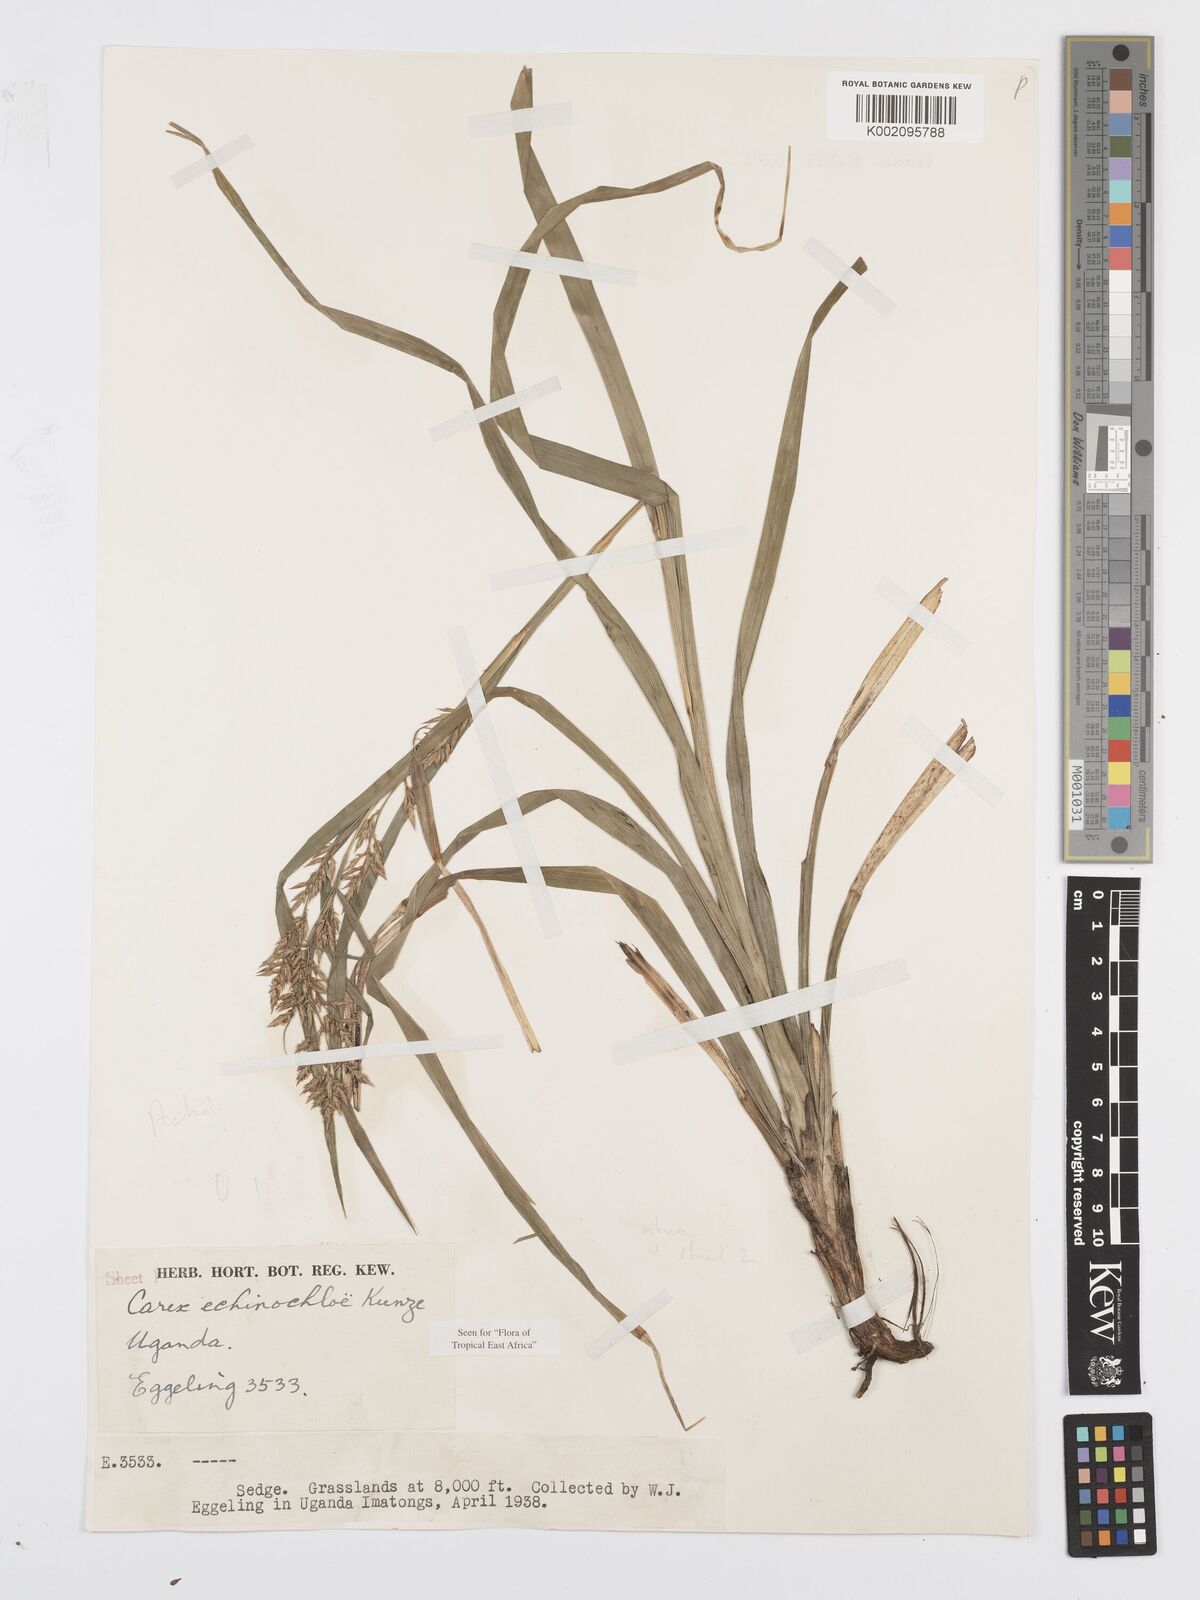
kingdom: Plantae
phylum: Tracheophyta
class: Liliopsida
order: Poales
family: Cyperaceae
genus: Carex
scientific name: Carex echinochloe
